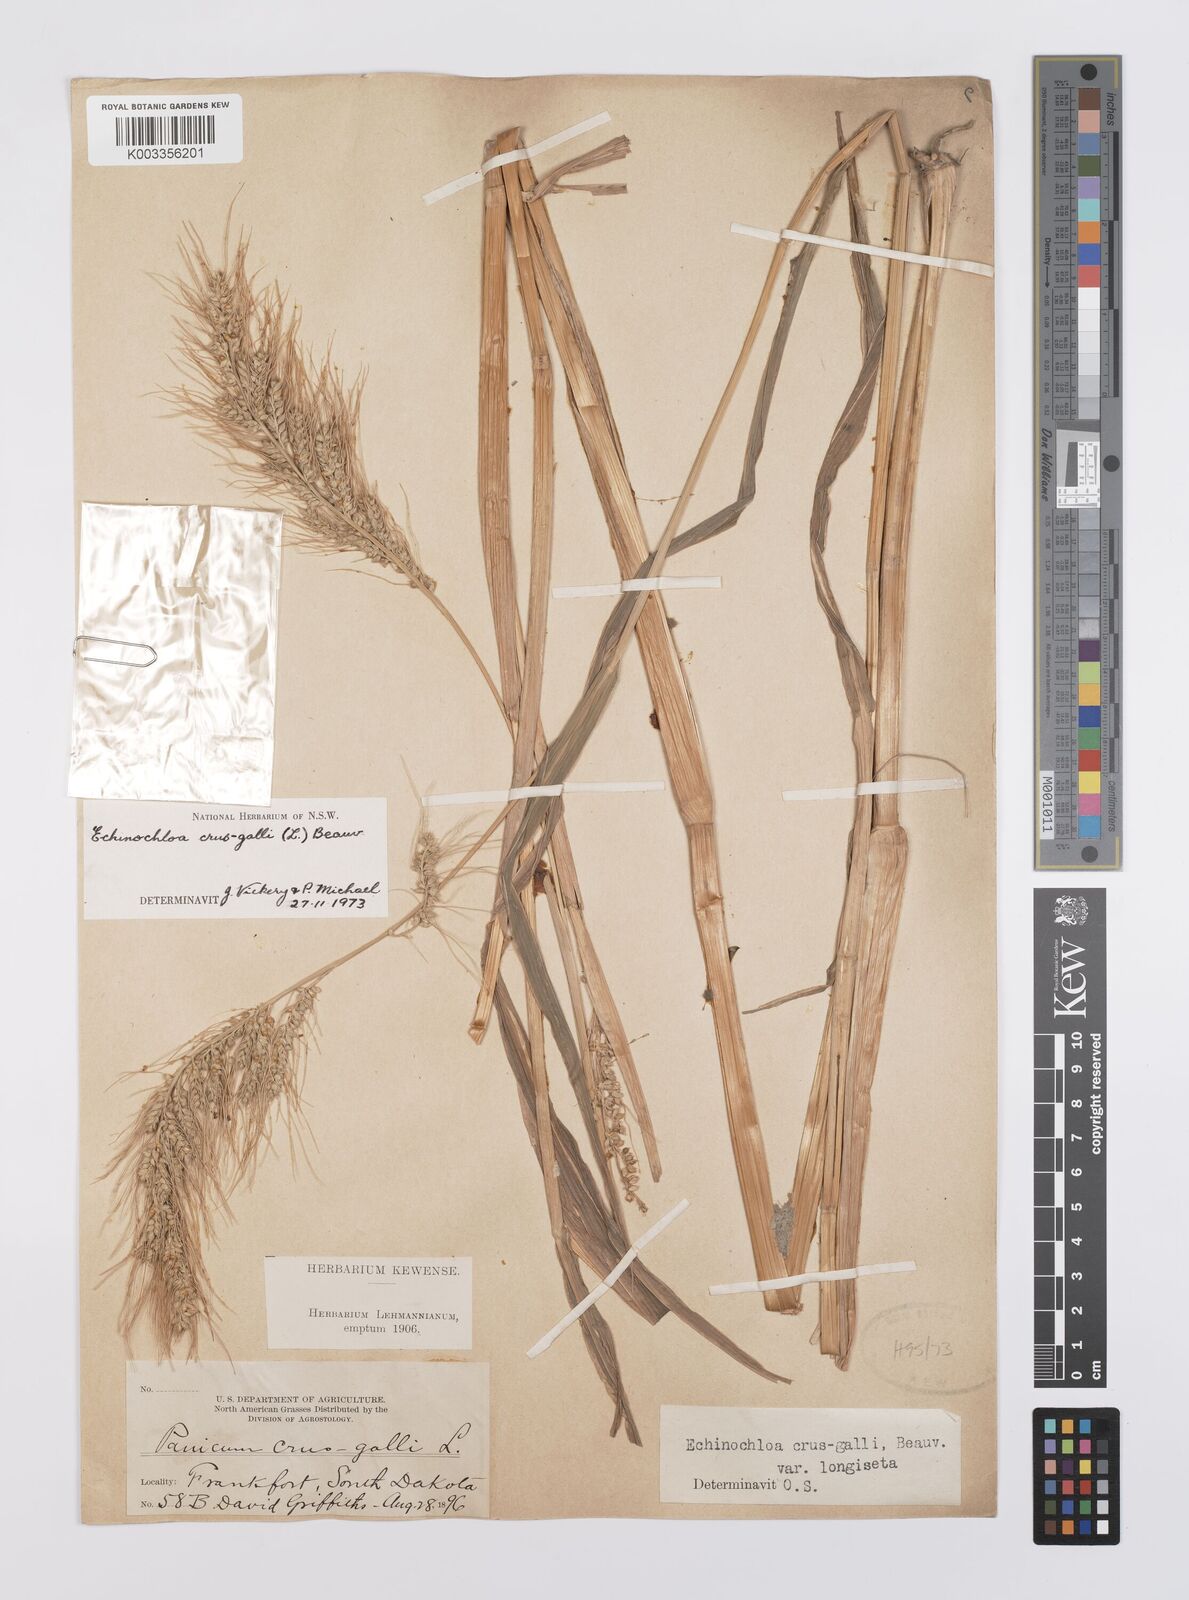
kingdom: Plantae
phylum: Tracheophyta
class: Liliopsida
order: Poales
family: Poaceae
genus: Echinochloa
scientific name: Echinochloa crus-galli
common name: Cockspur
